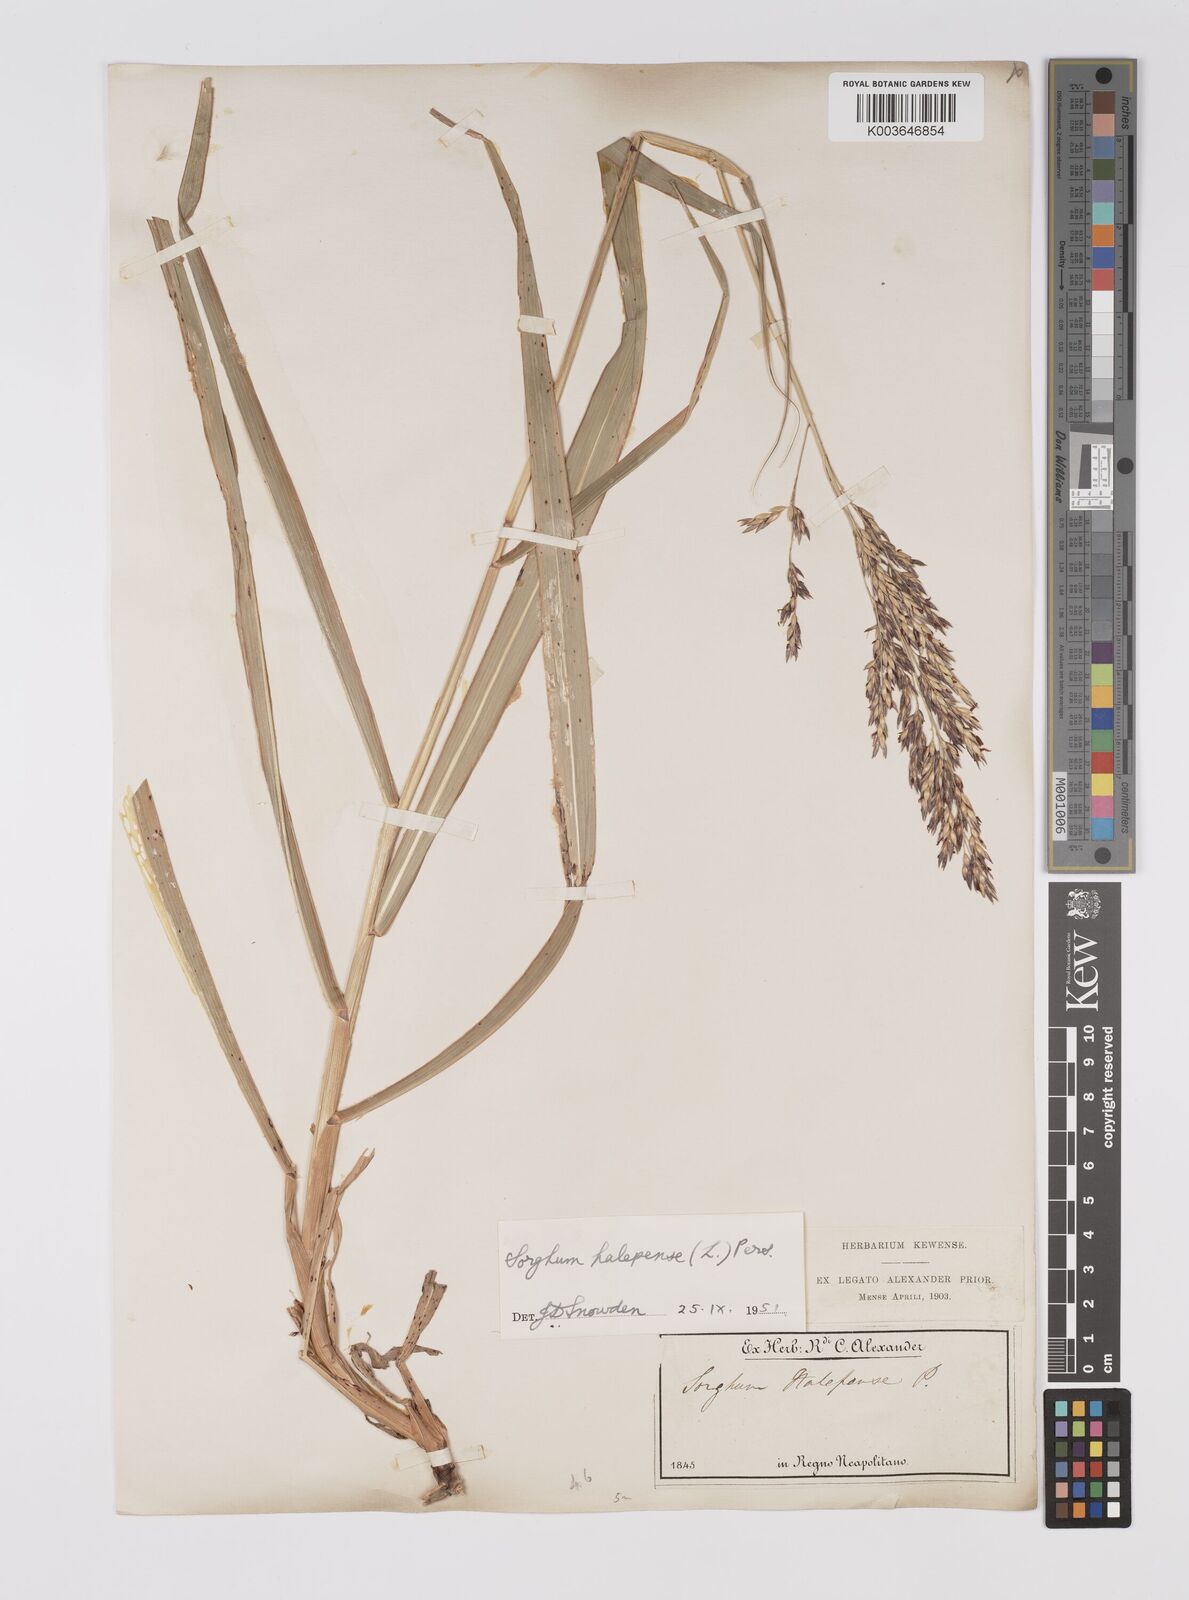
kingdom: Plantae
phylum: Tracheophyta
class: Liliopsida
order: Poales
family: Poaceae
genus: Sorghum
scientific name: Sorghum halepense
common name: Johnson-grass
